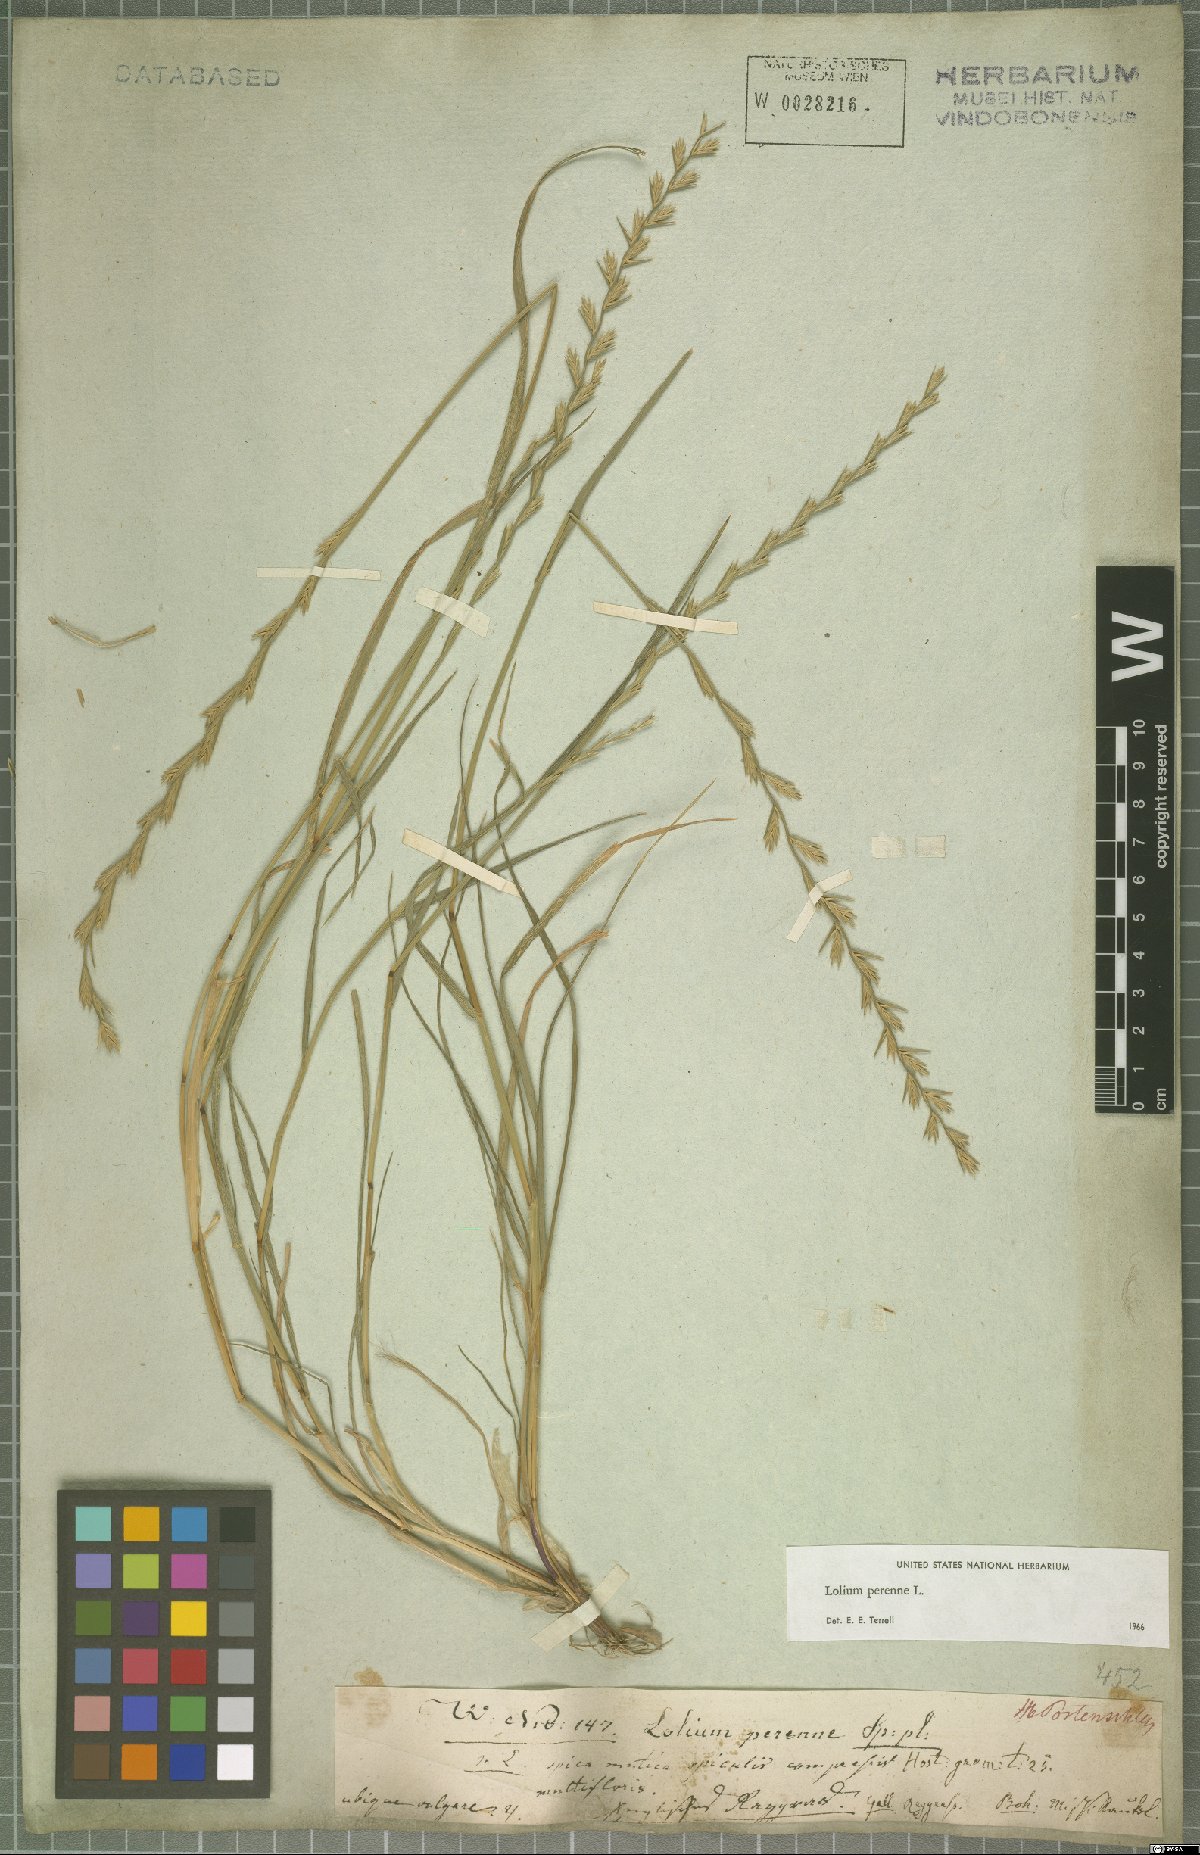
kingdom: Plantae
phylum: Tracheophyta
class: Liliopsida
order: Poales
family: Poaceae
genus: Lolium
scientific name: Lolium perenne
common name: Perennial ryegrass
